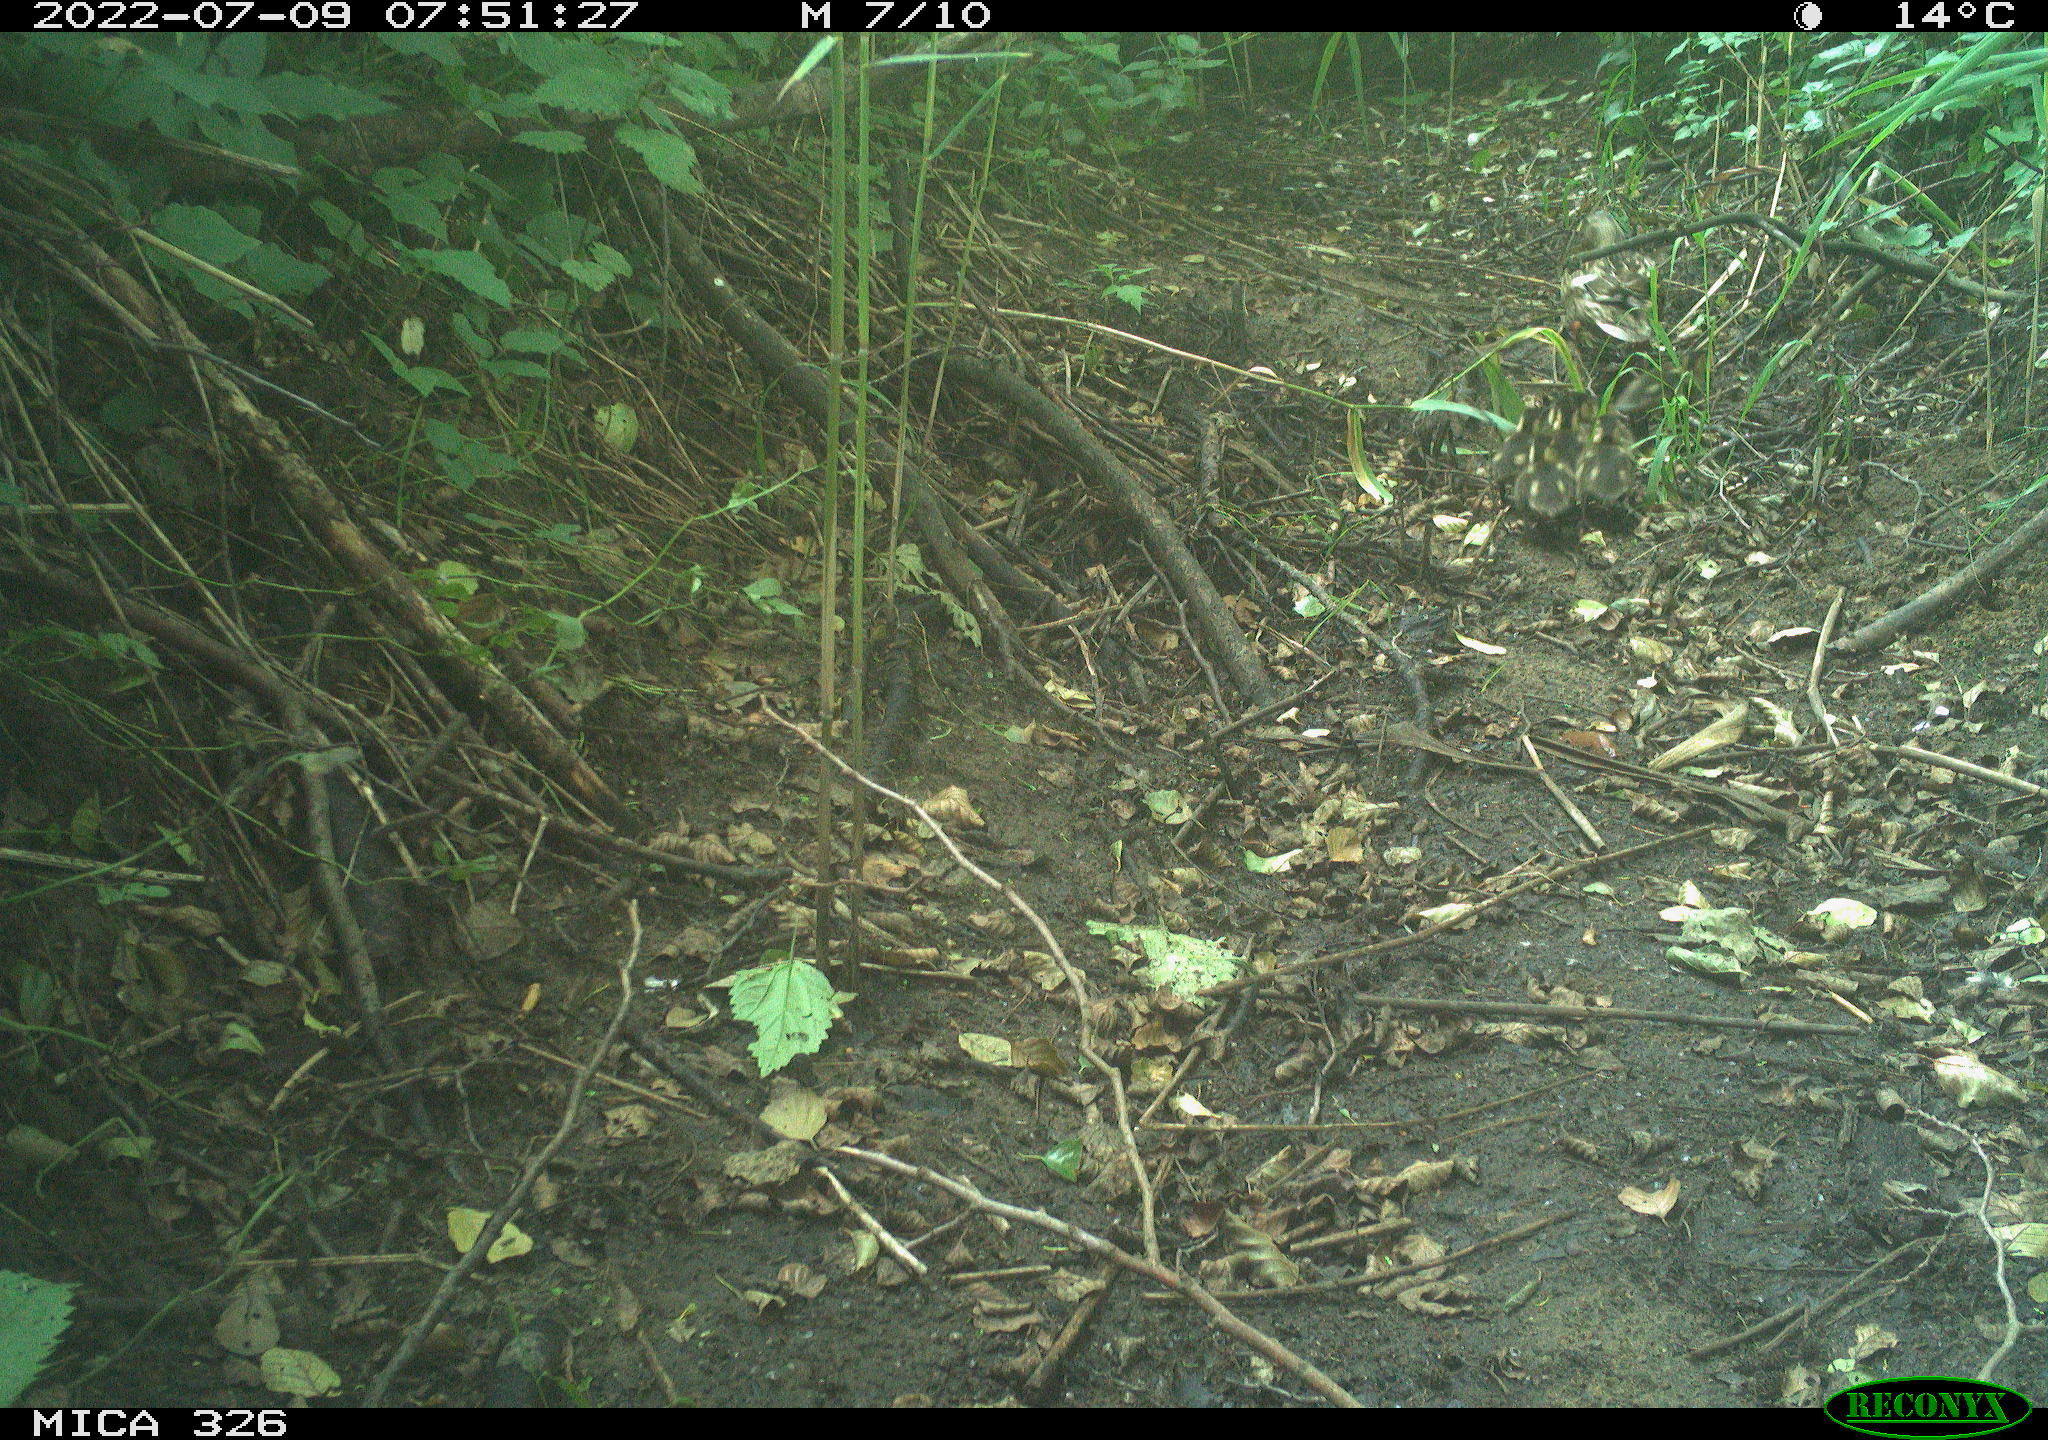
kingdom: Animalia
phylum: Chordata
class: Aves
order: Anseriformes
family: Anatidae
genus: Anas
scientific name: Anas
